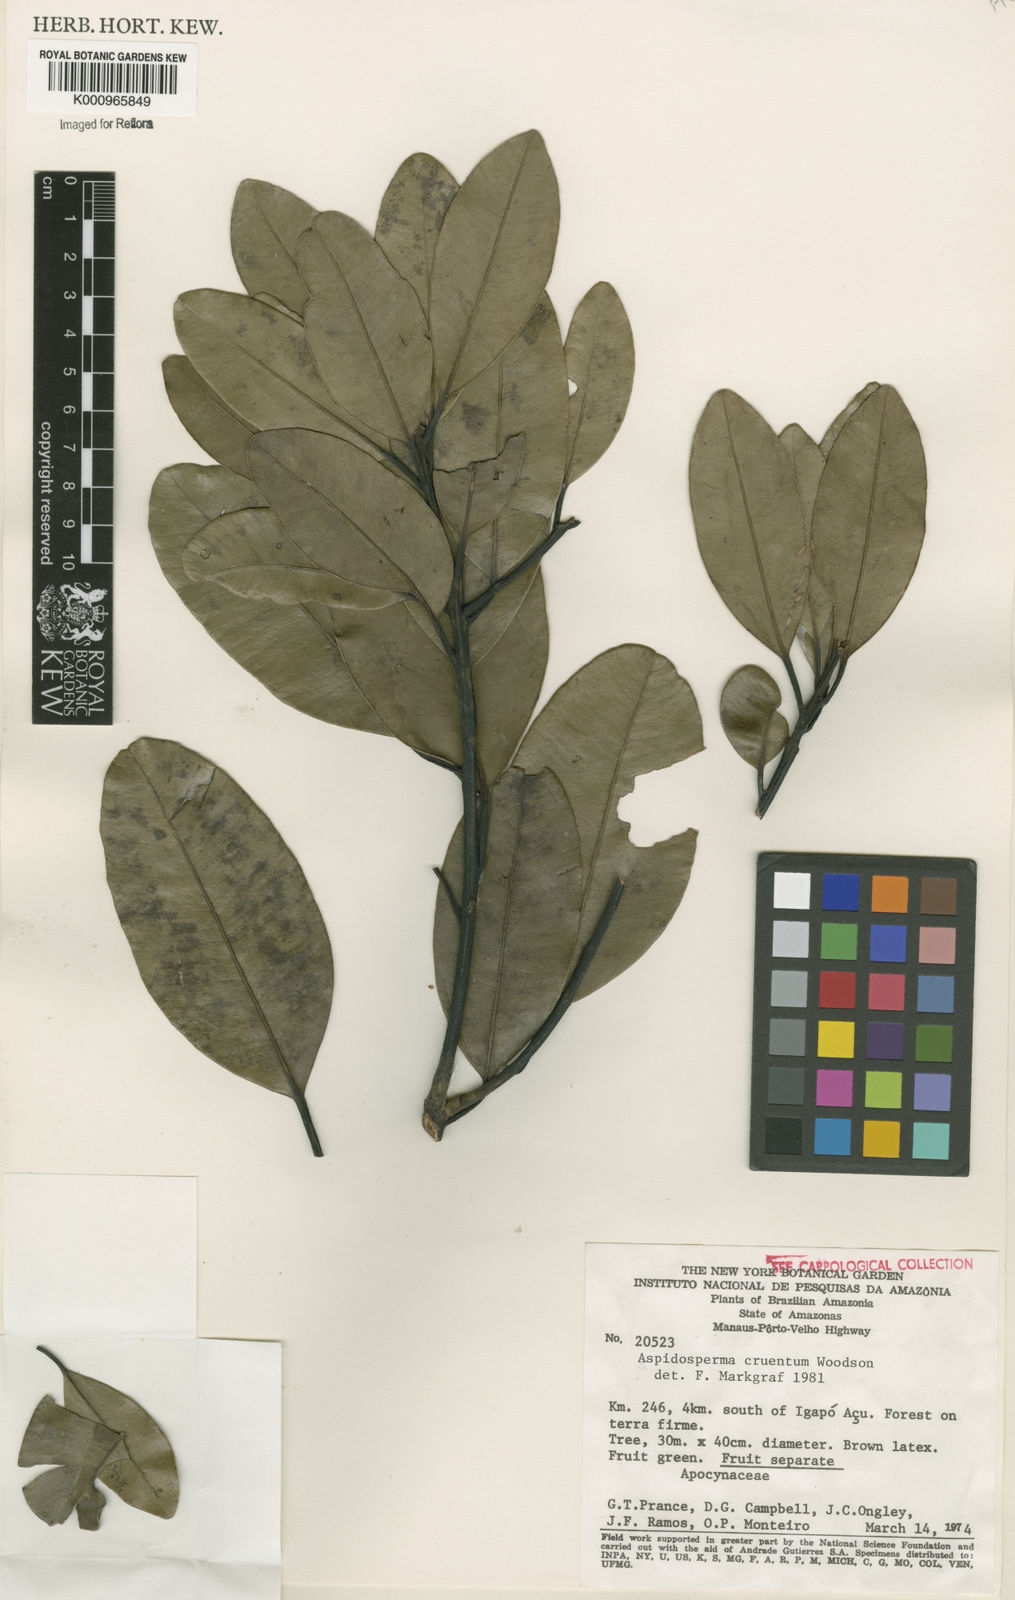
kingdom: Plantae
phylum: Tracheophyta
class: Magnoliopsida
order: Gentianales
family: Apocynaceae
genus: Aspidosperma
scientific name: Aspidosperma
